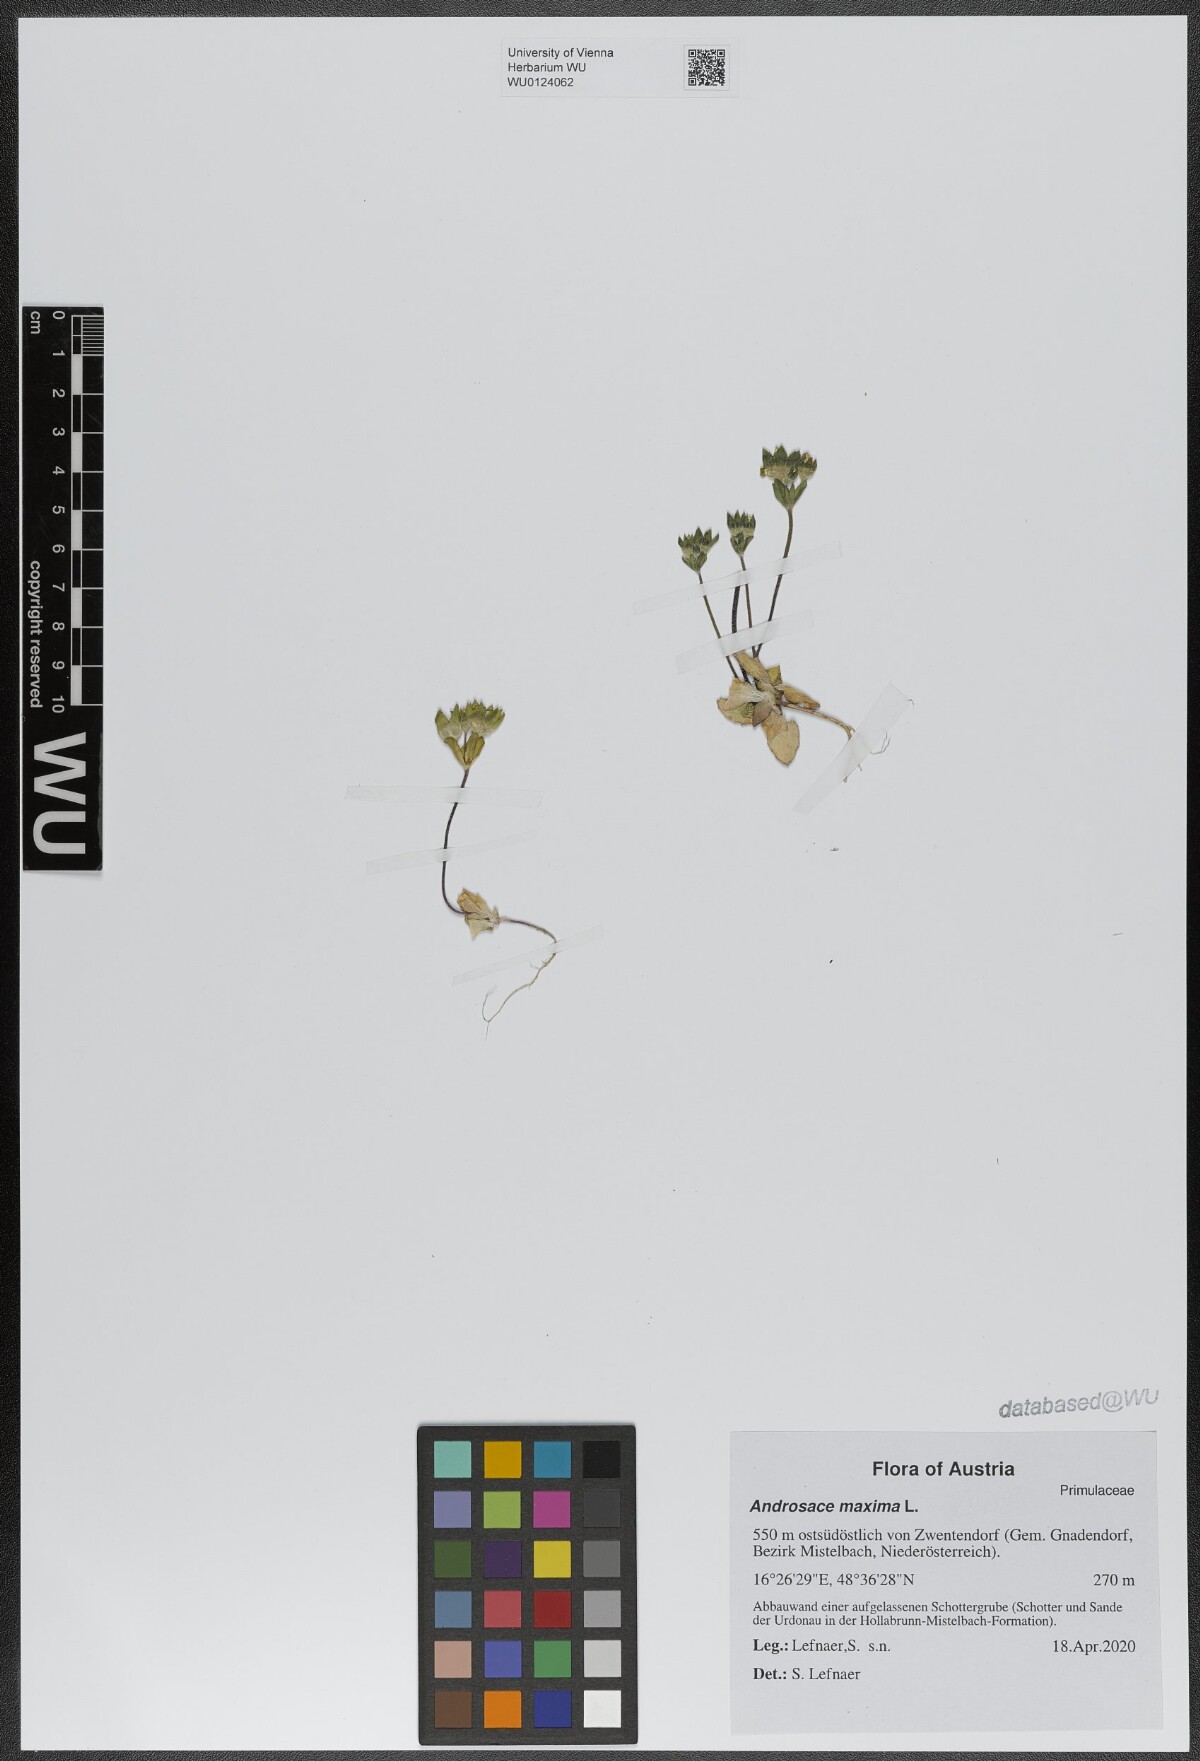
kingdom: Plantae
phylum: Tracheophyta
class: Magnoliopsida
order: Ericales
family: Primulaceae
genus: Androsace
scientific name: Androsace maxima
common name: Annual androsace
